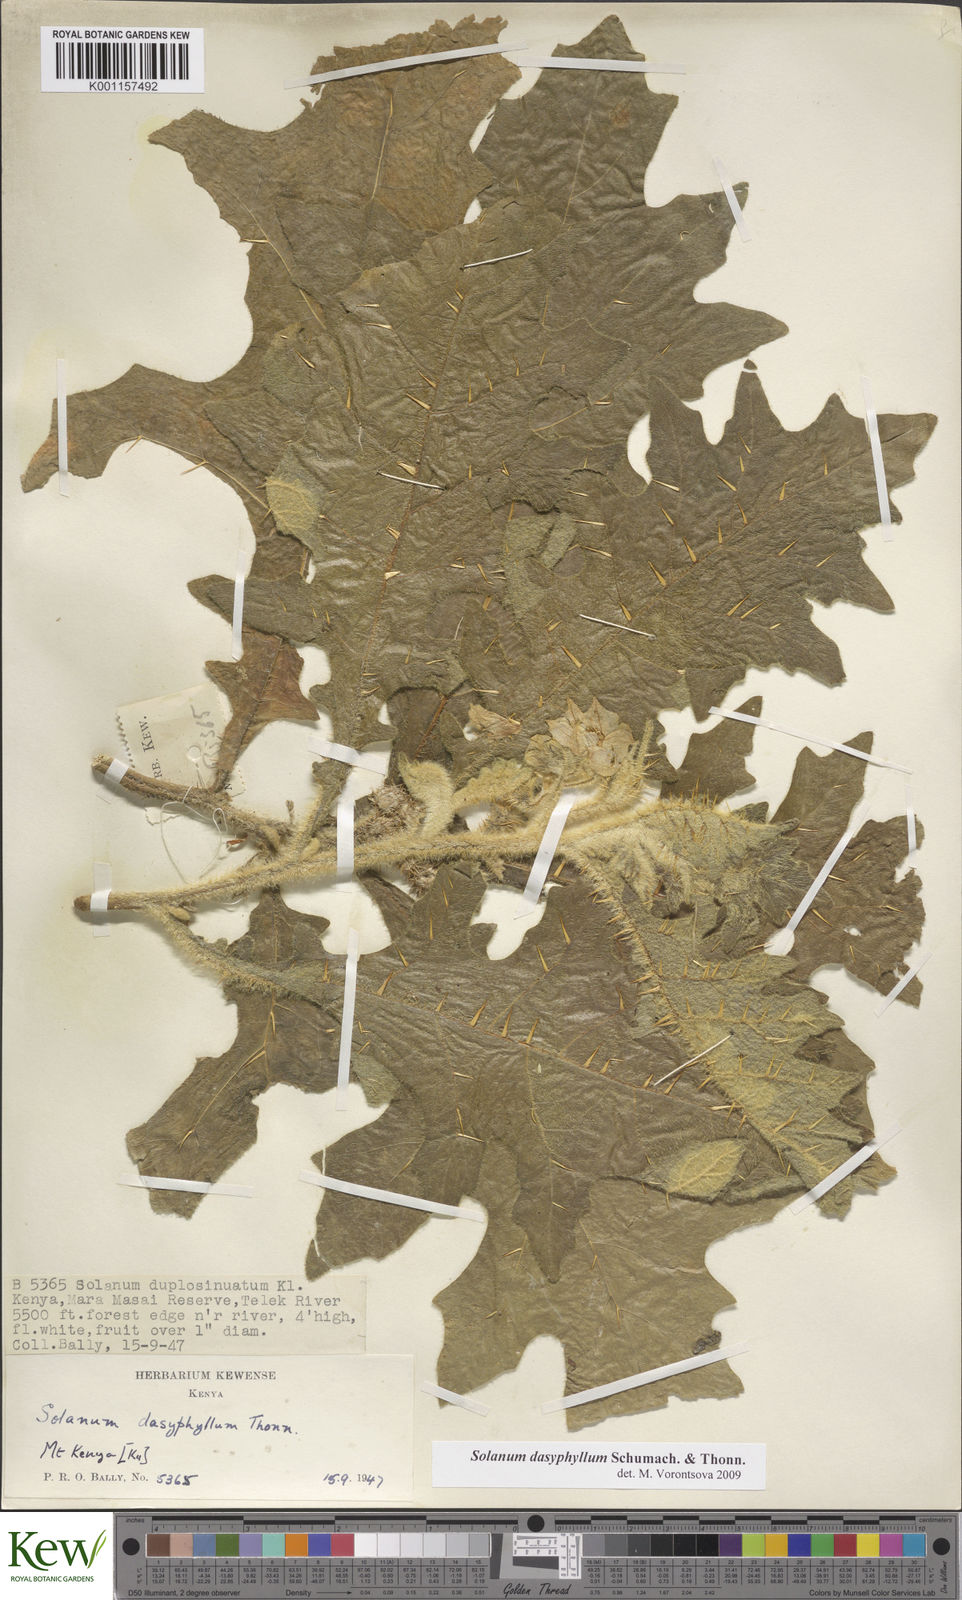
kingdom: Plantae
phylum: Tracheophyta
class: Magnoliopsida
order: Solanales
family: Solanaceae
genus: Solanum
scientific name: Solanum dasyphyllum
